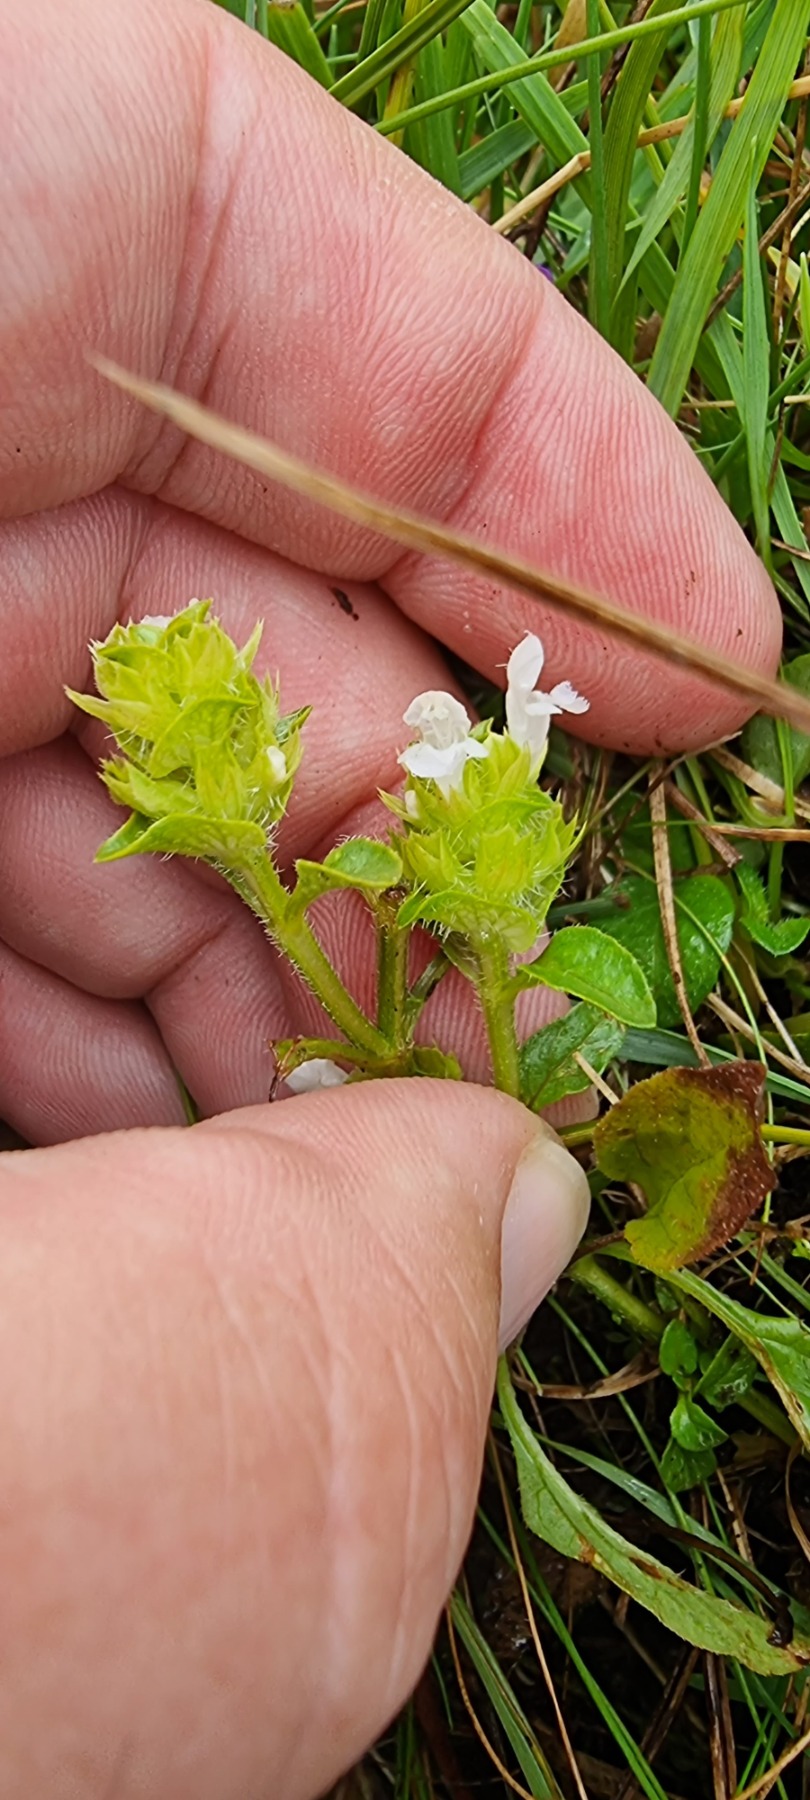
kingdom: Plantae
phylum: Tracheophyta
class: Magnoliopsida
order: Lamiales
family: Lamiaceae
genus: Prunella
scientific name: Prunella vulgaris
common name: Almindelig brunelle
